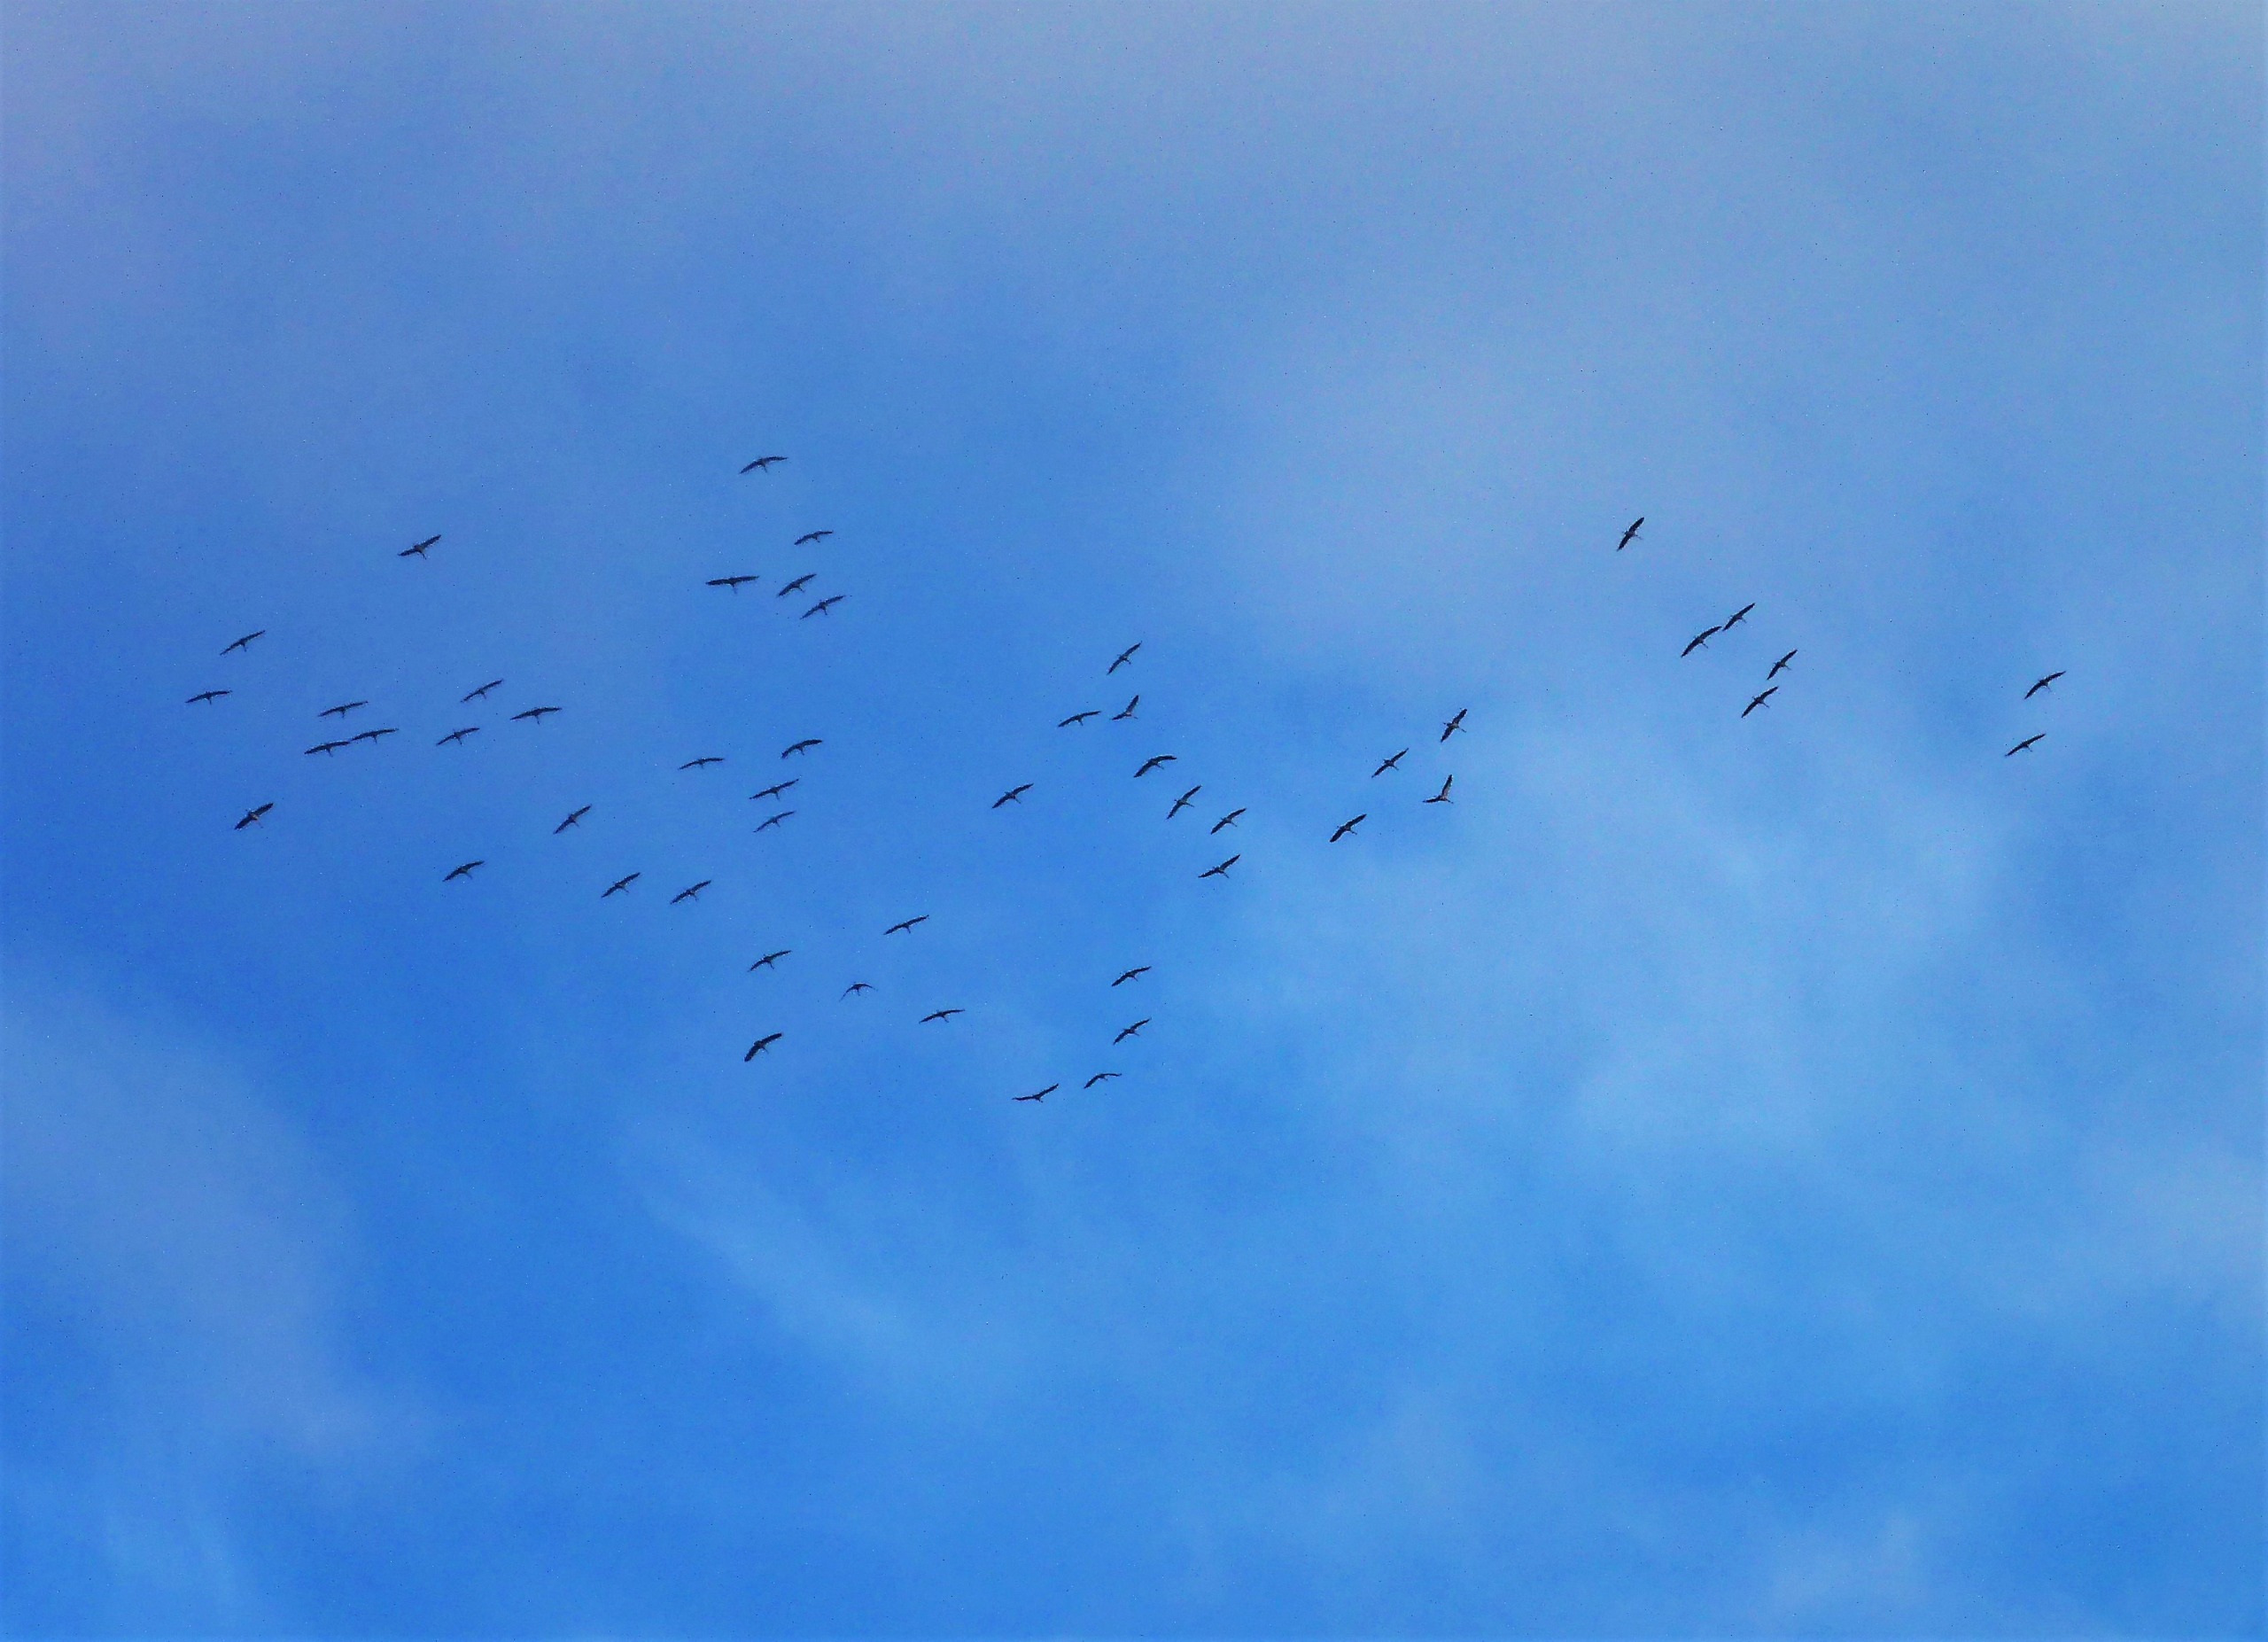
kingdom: Animalia
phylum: Chordata
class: Aves
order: Gruiformes
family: Gruidae
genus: Grus
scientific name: Grus grus
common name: Trane
